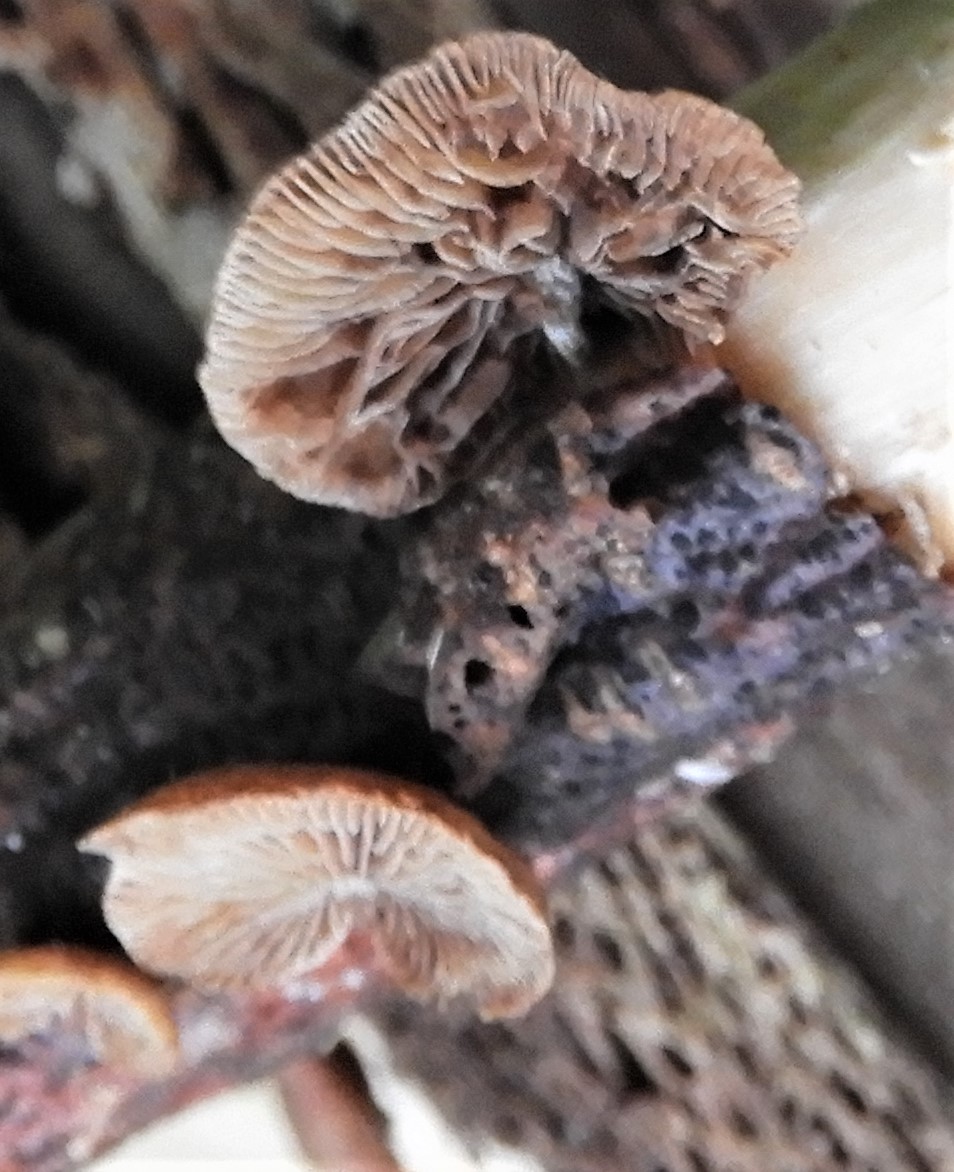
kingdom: Fungi
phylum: Basidiomycota
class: Agaricomycetes
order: Agaricales
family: Strophariaceae
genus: Deconica
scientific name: Deconica horizontalis
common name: ved-stråhat
